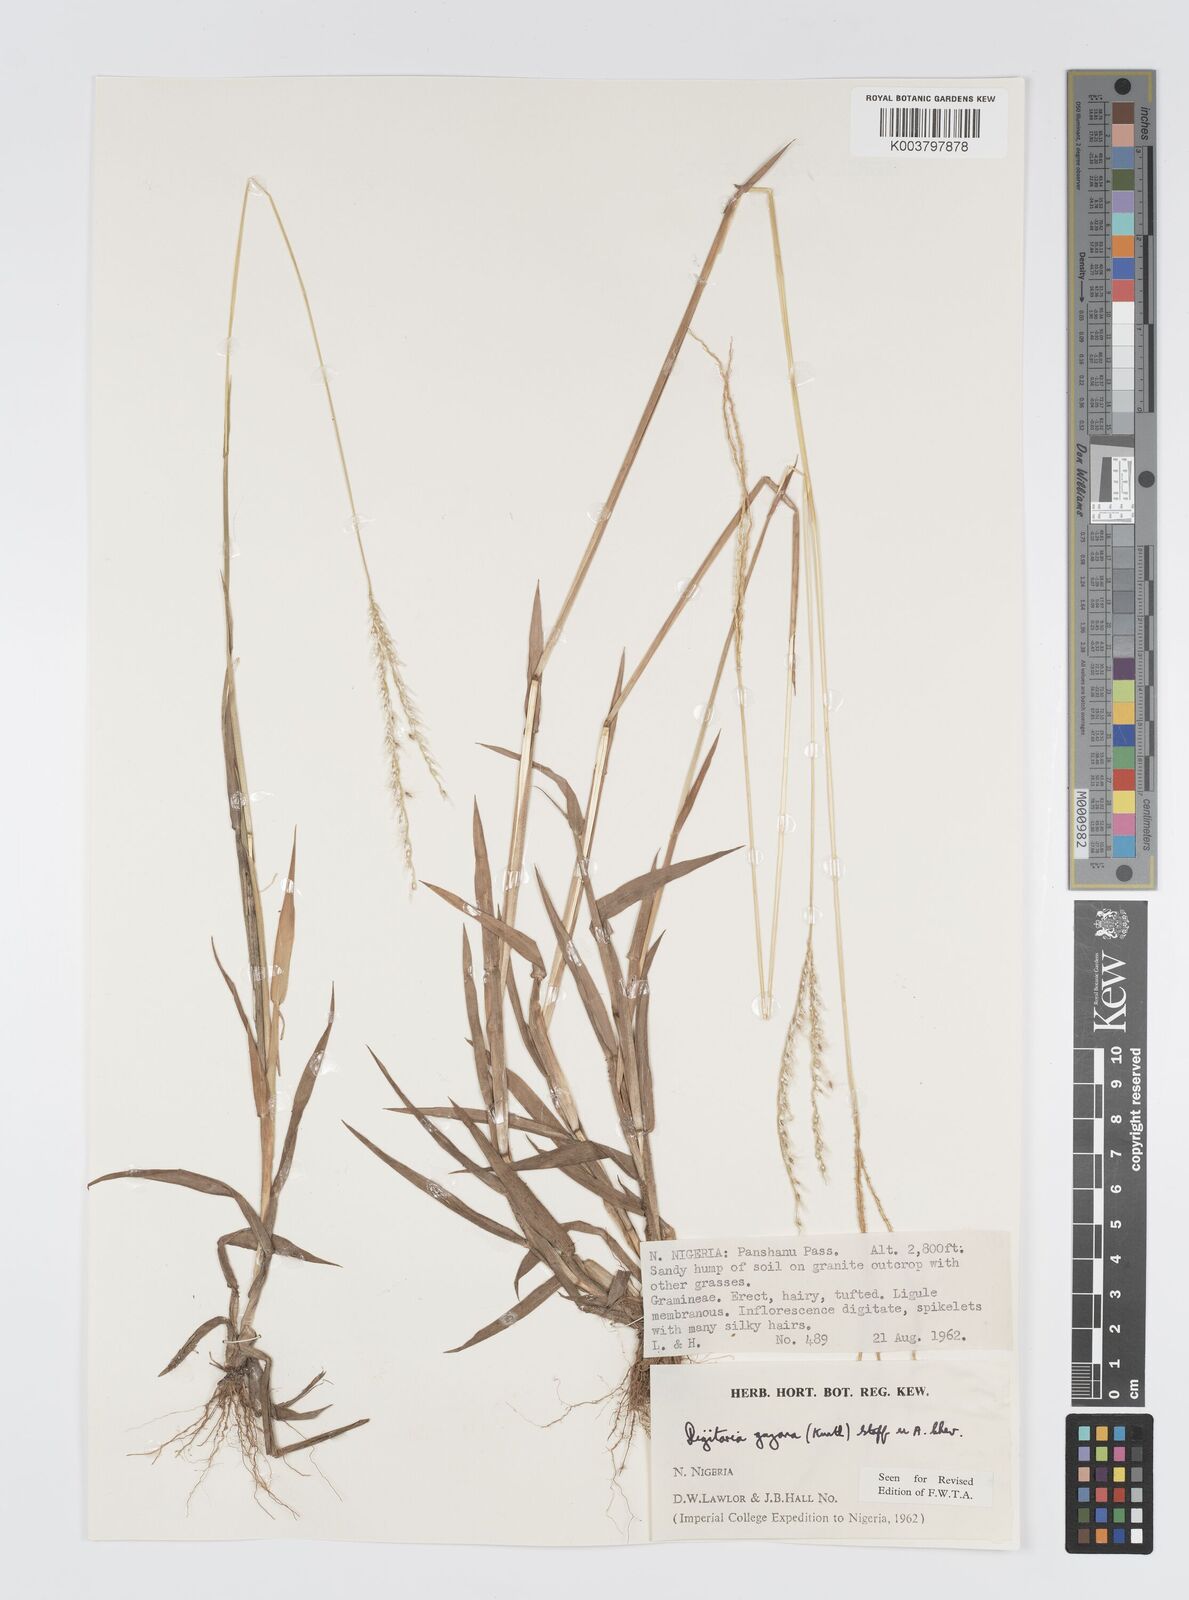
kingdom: Plantae
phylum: Tracheophyta
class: Liliopsida
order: Poales
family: Poaceae
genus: Digitaria
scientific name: Digitaria gayana
